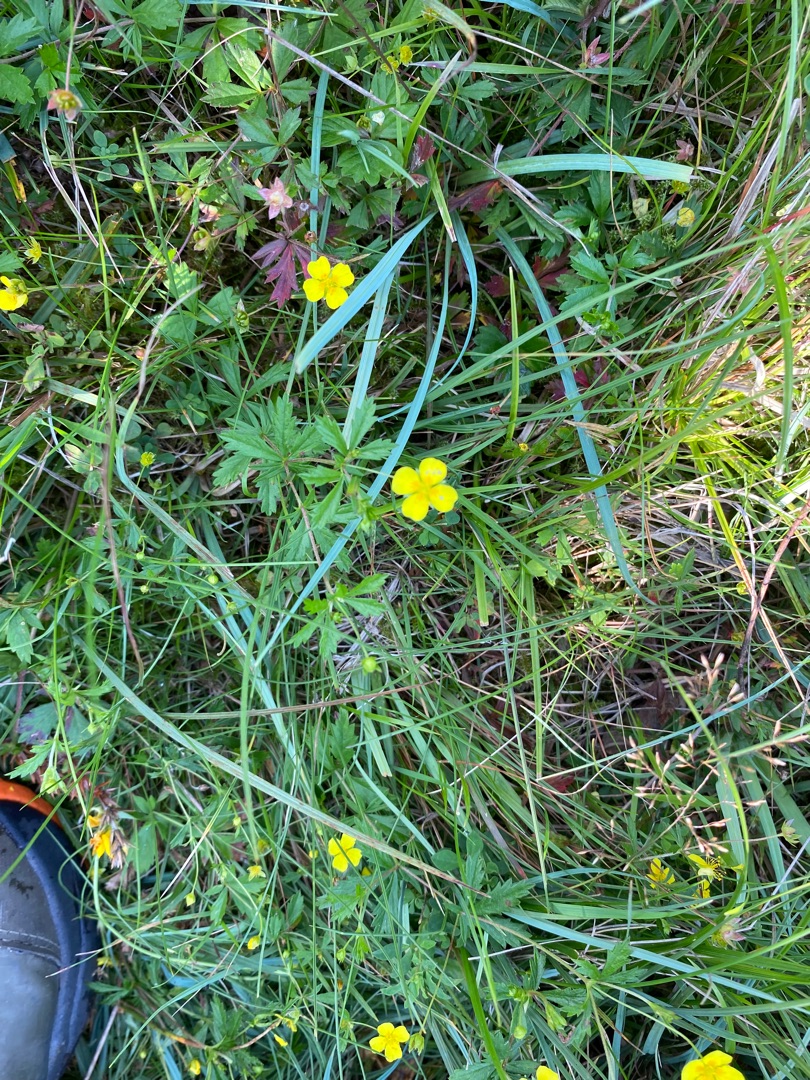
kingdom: Plantae
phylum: Tracheophyta
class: Magnoliopsida
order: Rosales
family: Rosaceae
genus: Potentilla
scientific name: Potentilla erecta
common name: Tormentil
